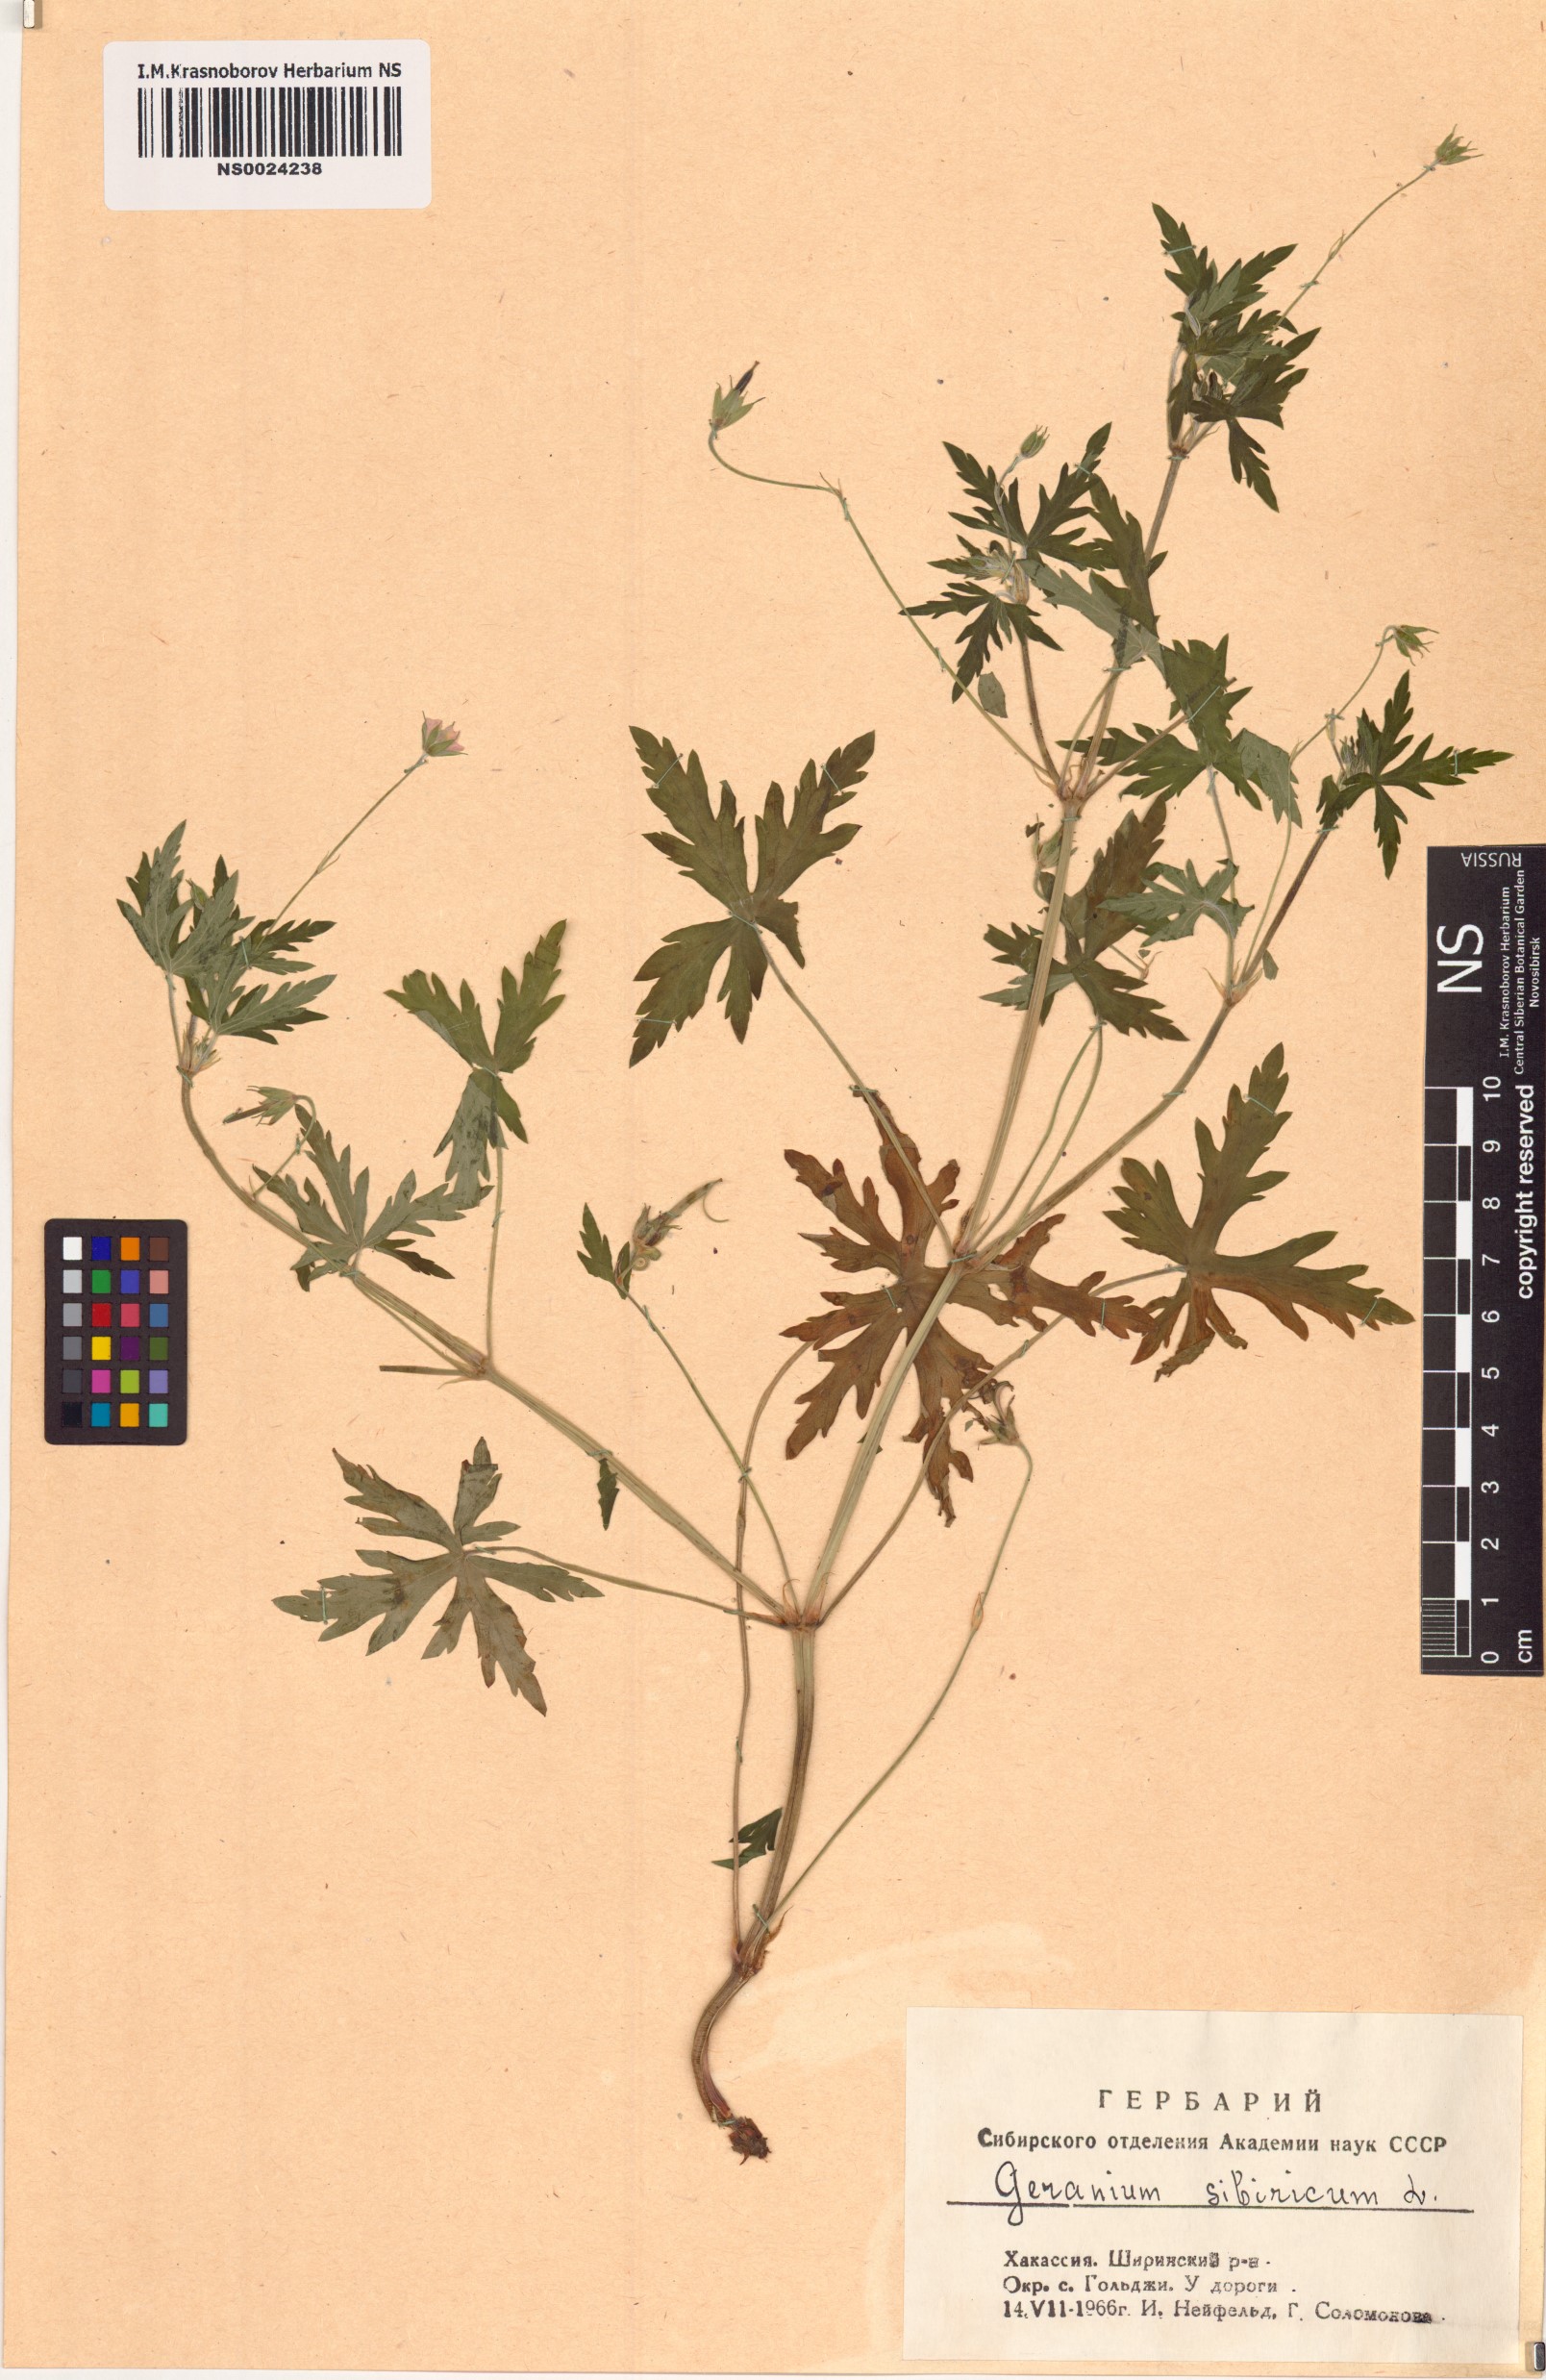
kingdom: Plantae
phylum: Tracheophyta
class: Magnoliopsida
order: Geraniales
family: Geraniaceae
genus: Geranium
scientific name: Geranium sibiricum
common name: Siberian crane's-bill
